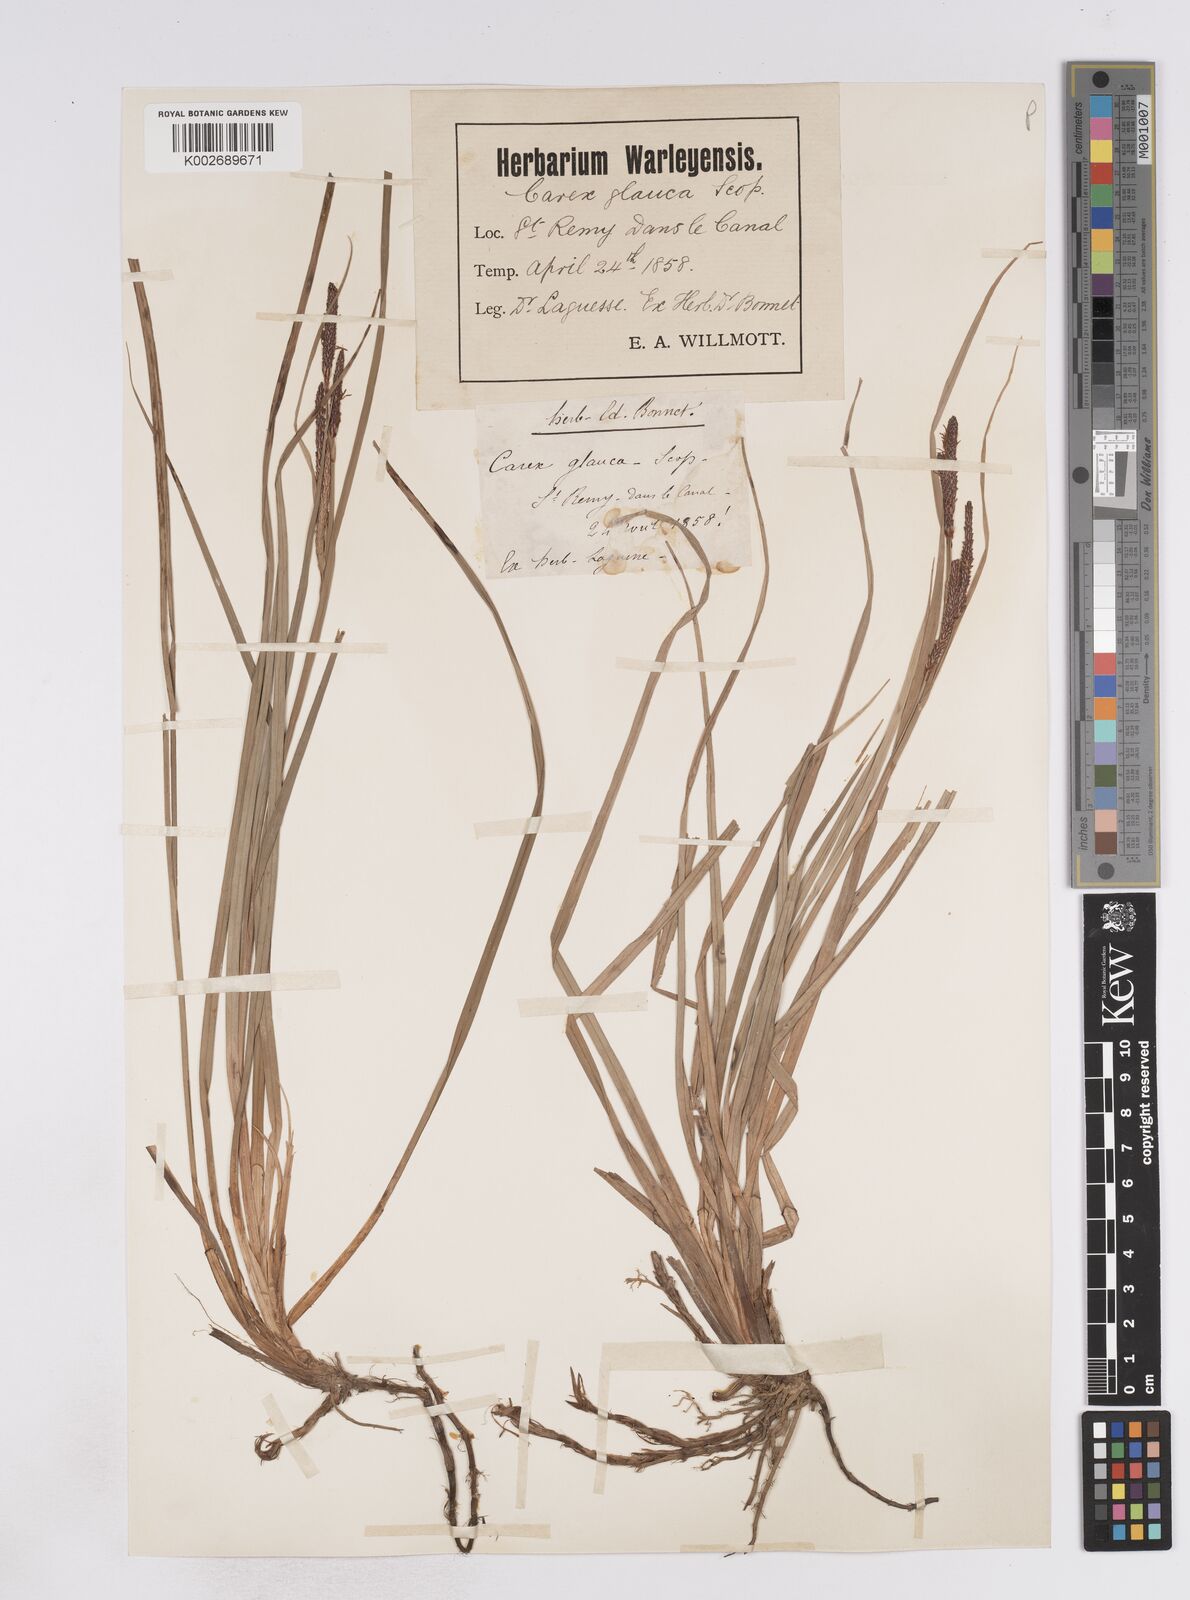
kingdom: Plantae
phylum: Tracheophyta
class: Liliopsida
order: Poales
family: Cyperaceae
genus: Carex
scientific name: Carex flacca
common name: Glaucous sedge
